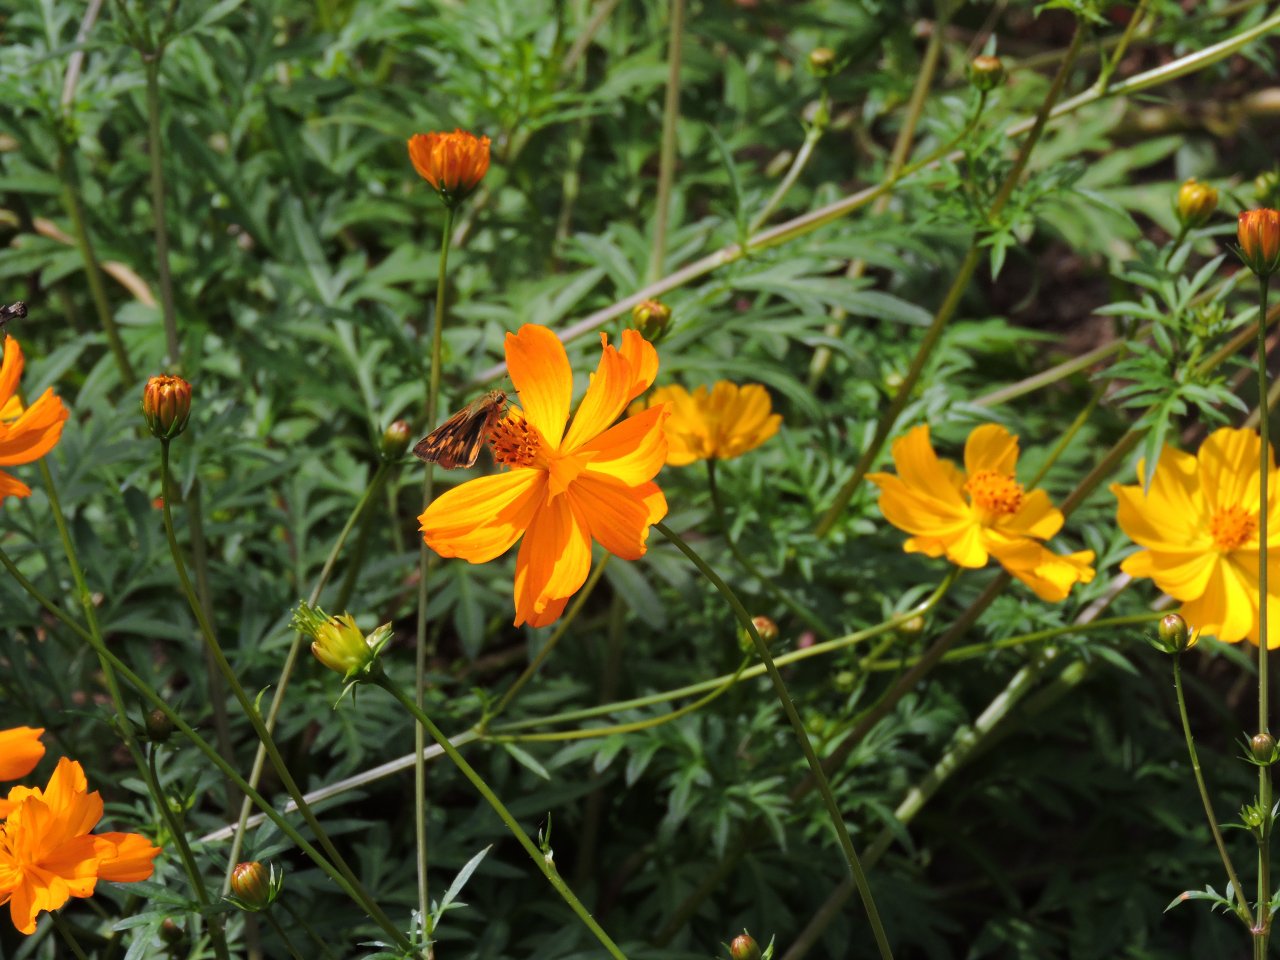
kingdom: Animalia
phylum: Arthropoda
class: Insecta
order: Lepidoptera
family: Hesperiidae
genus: Atalopedes
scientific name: Atalopedes campestris
